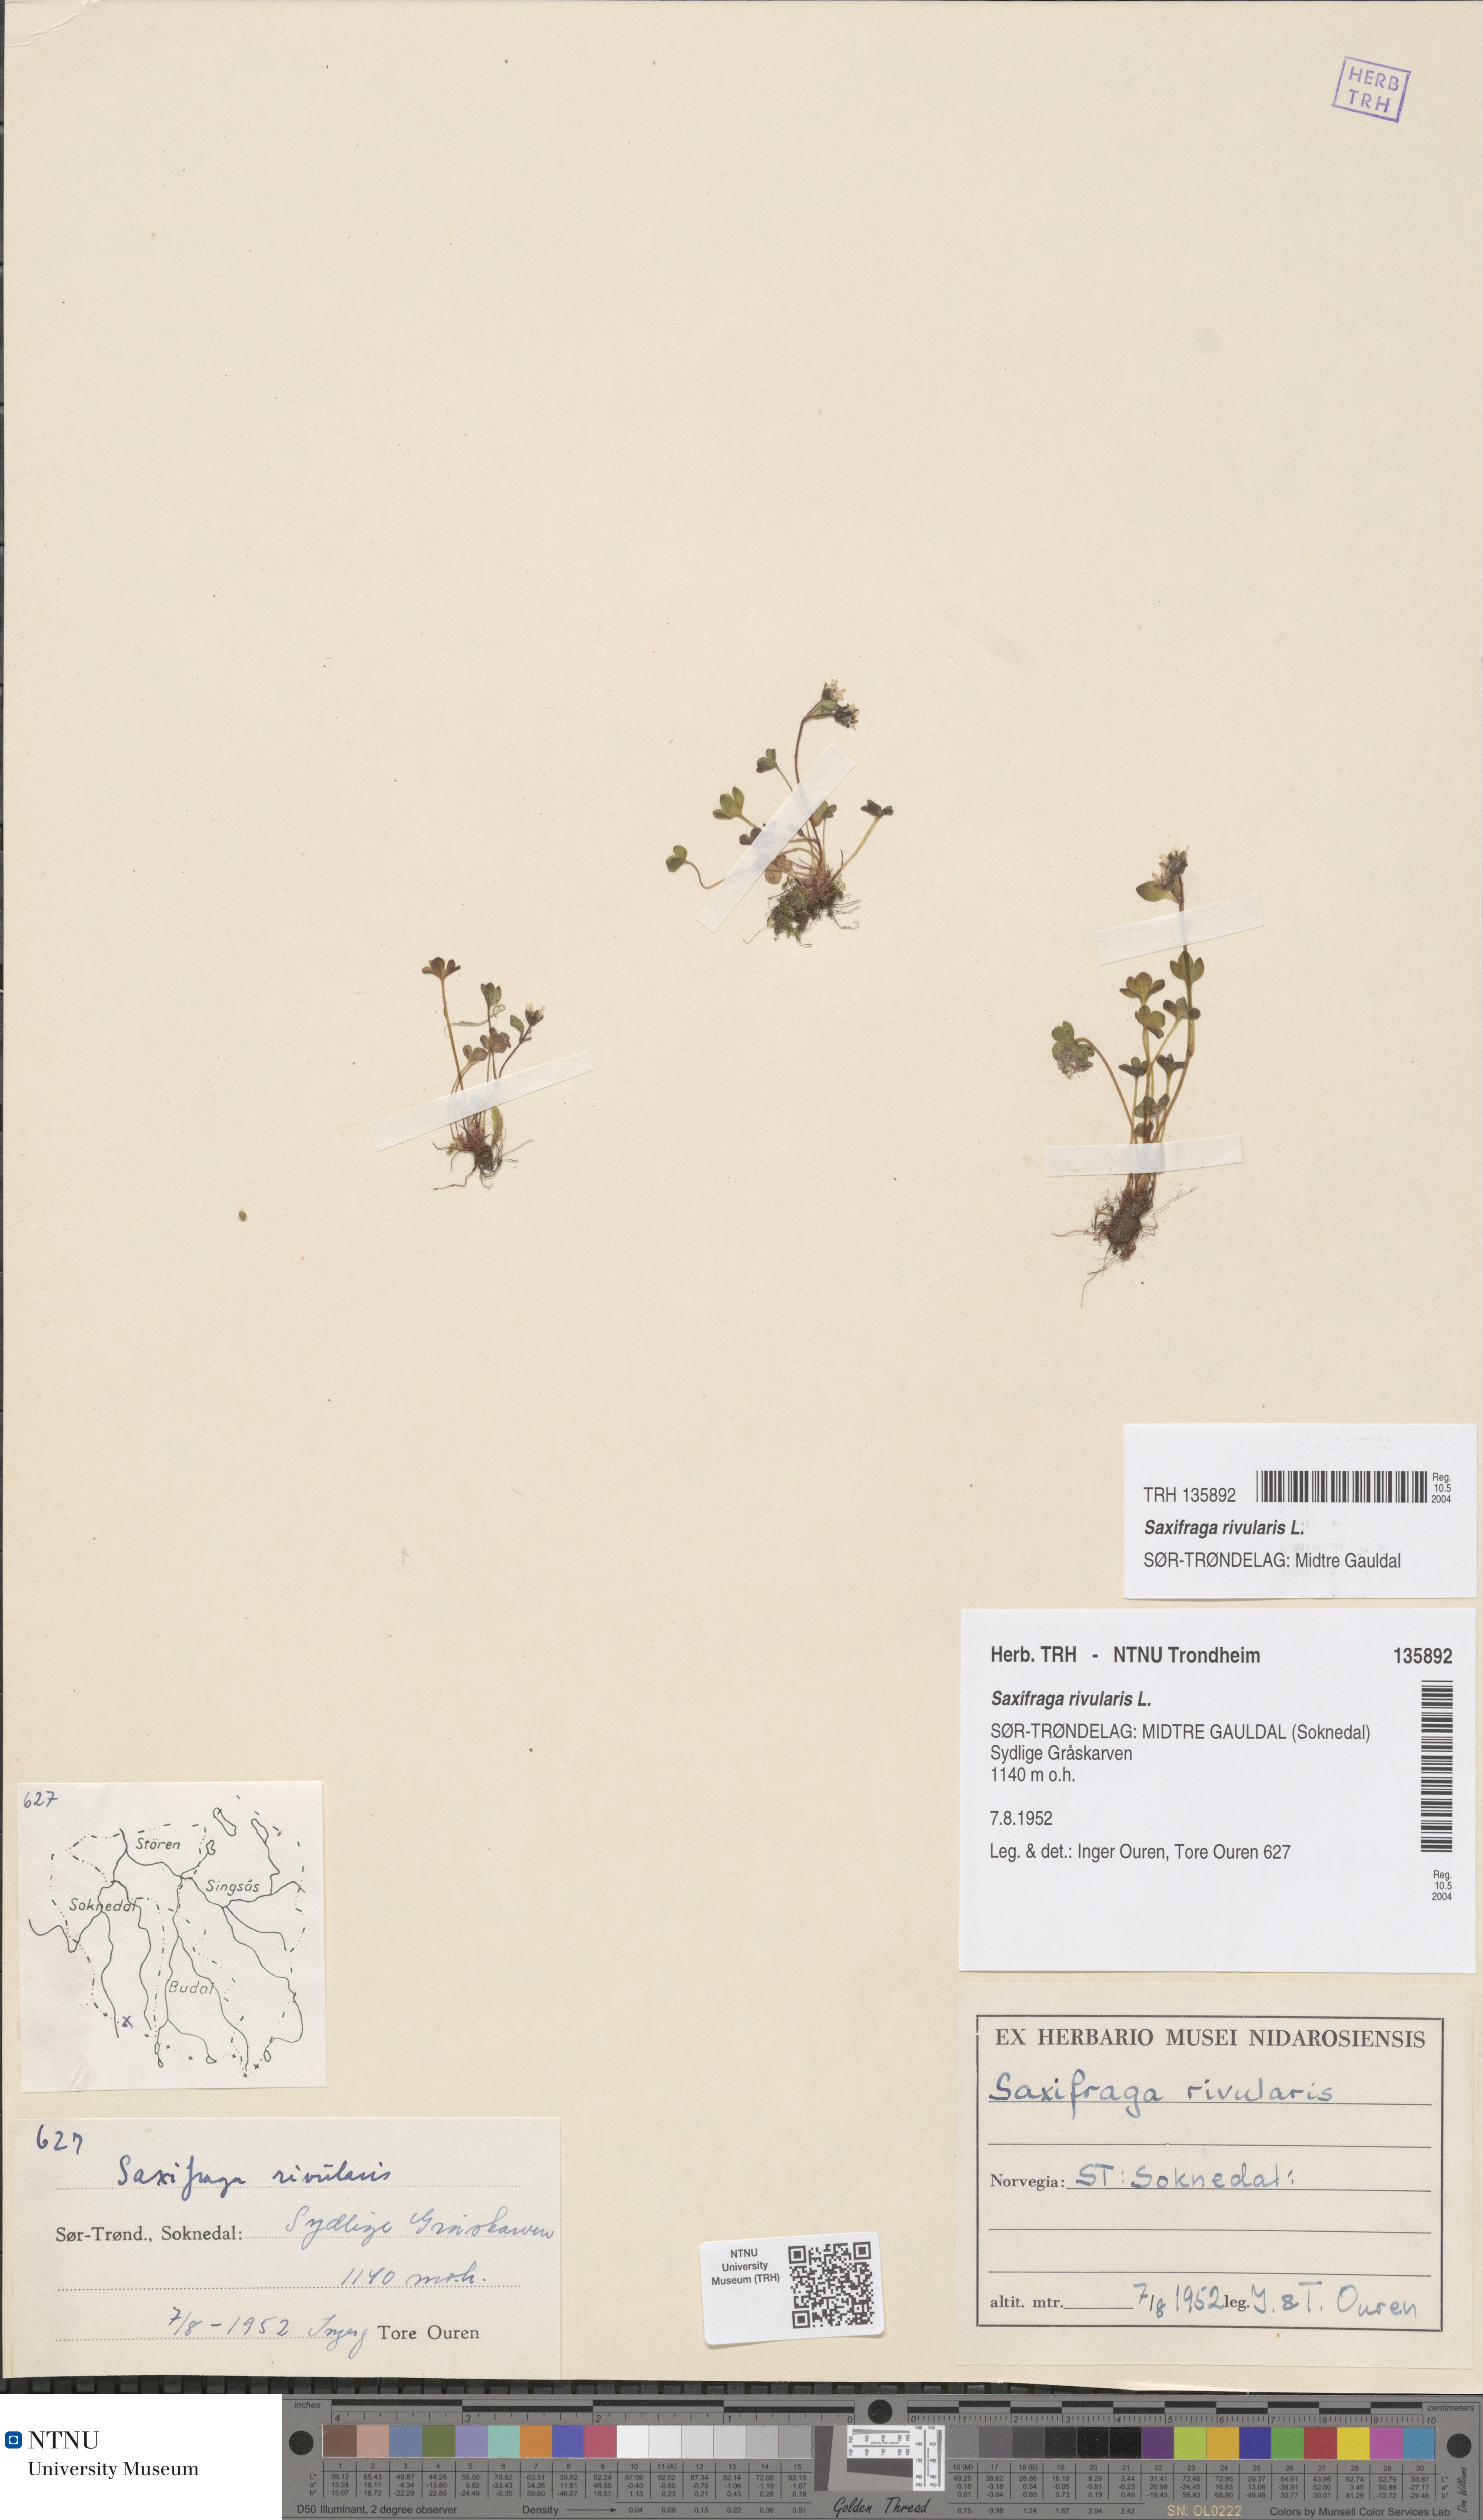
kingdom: Plantae
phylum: Tracheophyta
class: Magnoliopsida
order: Saxifragales
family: Saxifragaceae
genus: Saxifraga
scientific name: Saxifraga rivularis
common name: Highland saxifrage
